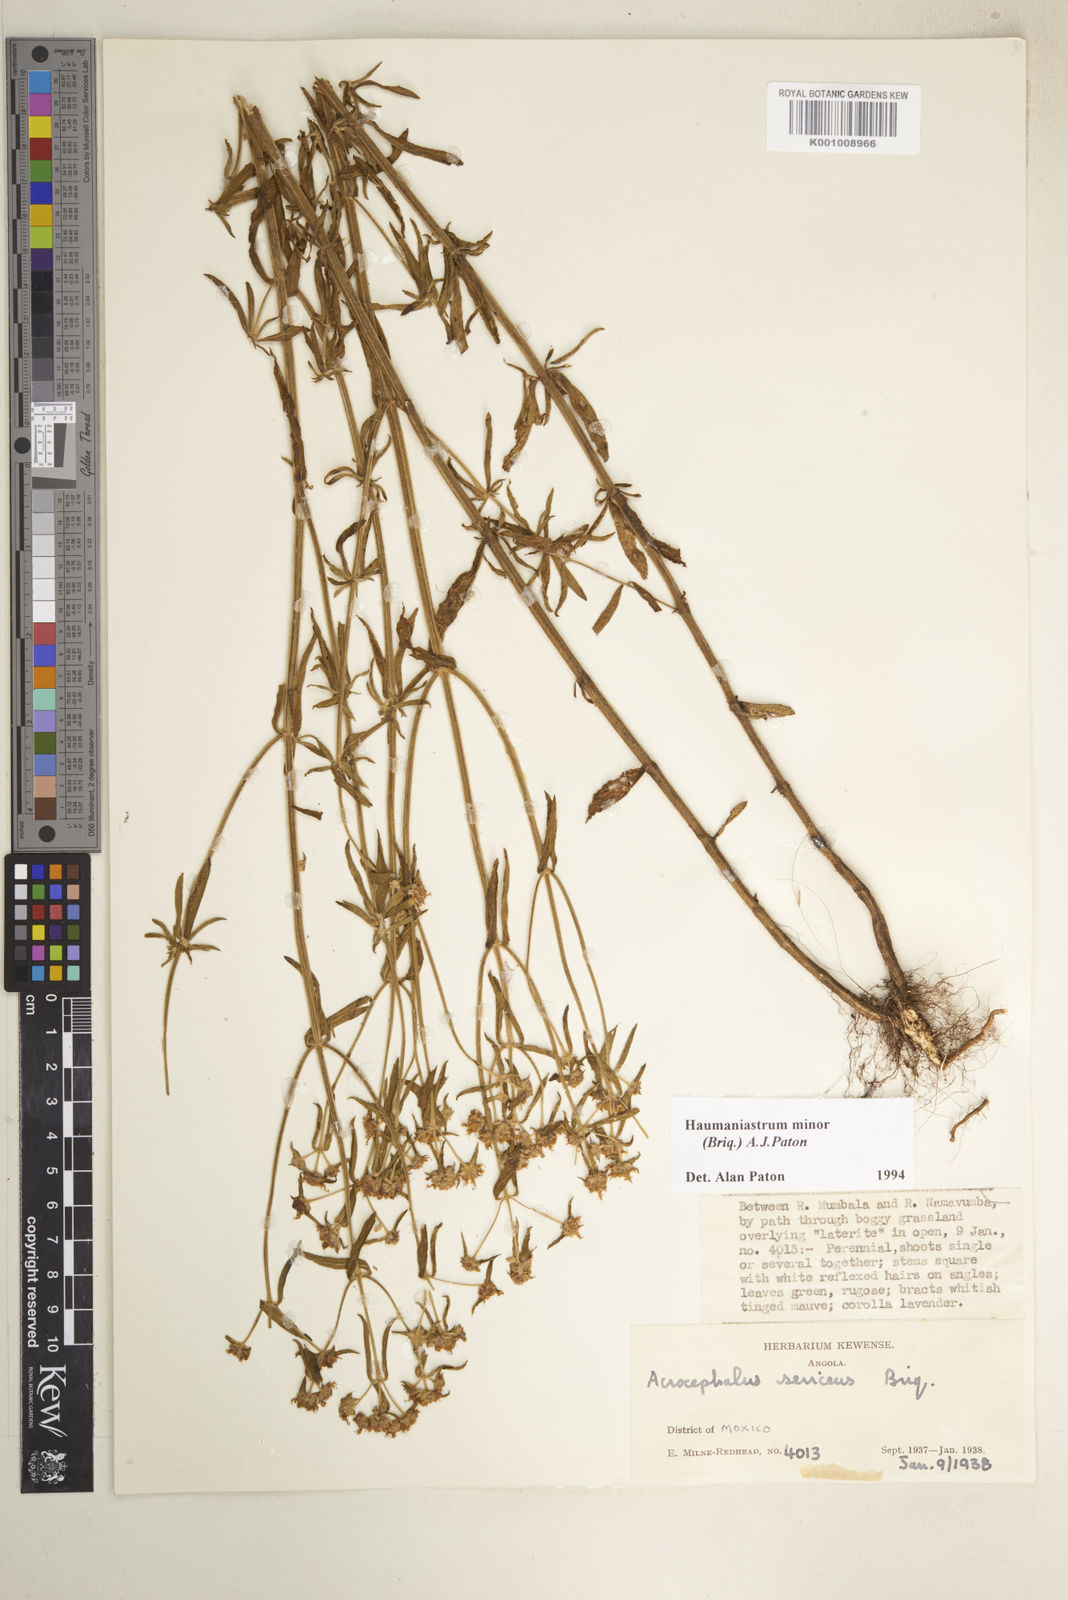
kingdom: Plantae
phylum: Tracheophyta
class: Magnoliopsida
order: Lamiales
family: Lamiaceae
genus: Haumaniastrum
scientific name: Haumaniastrum minor
